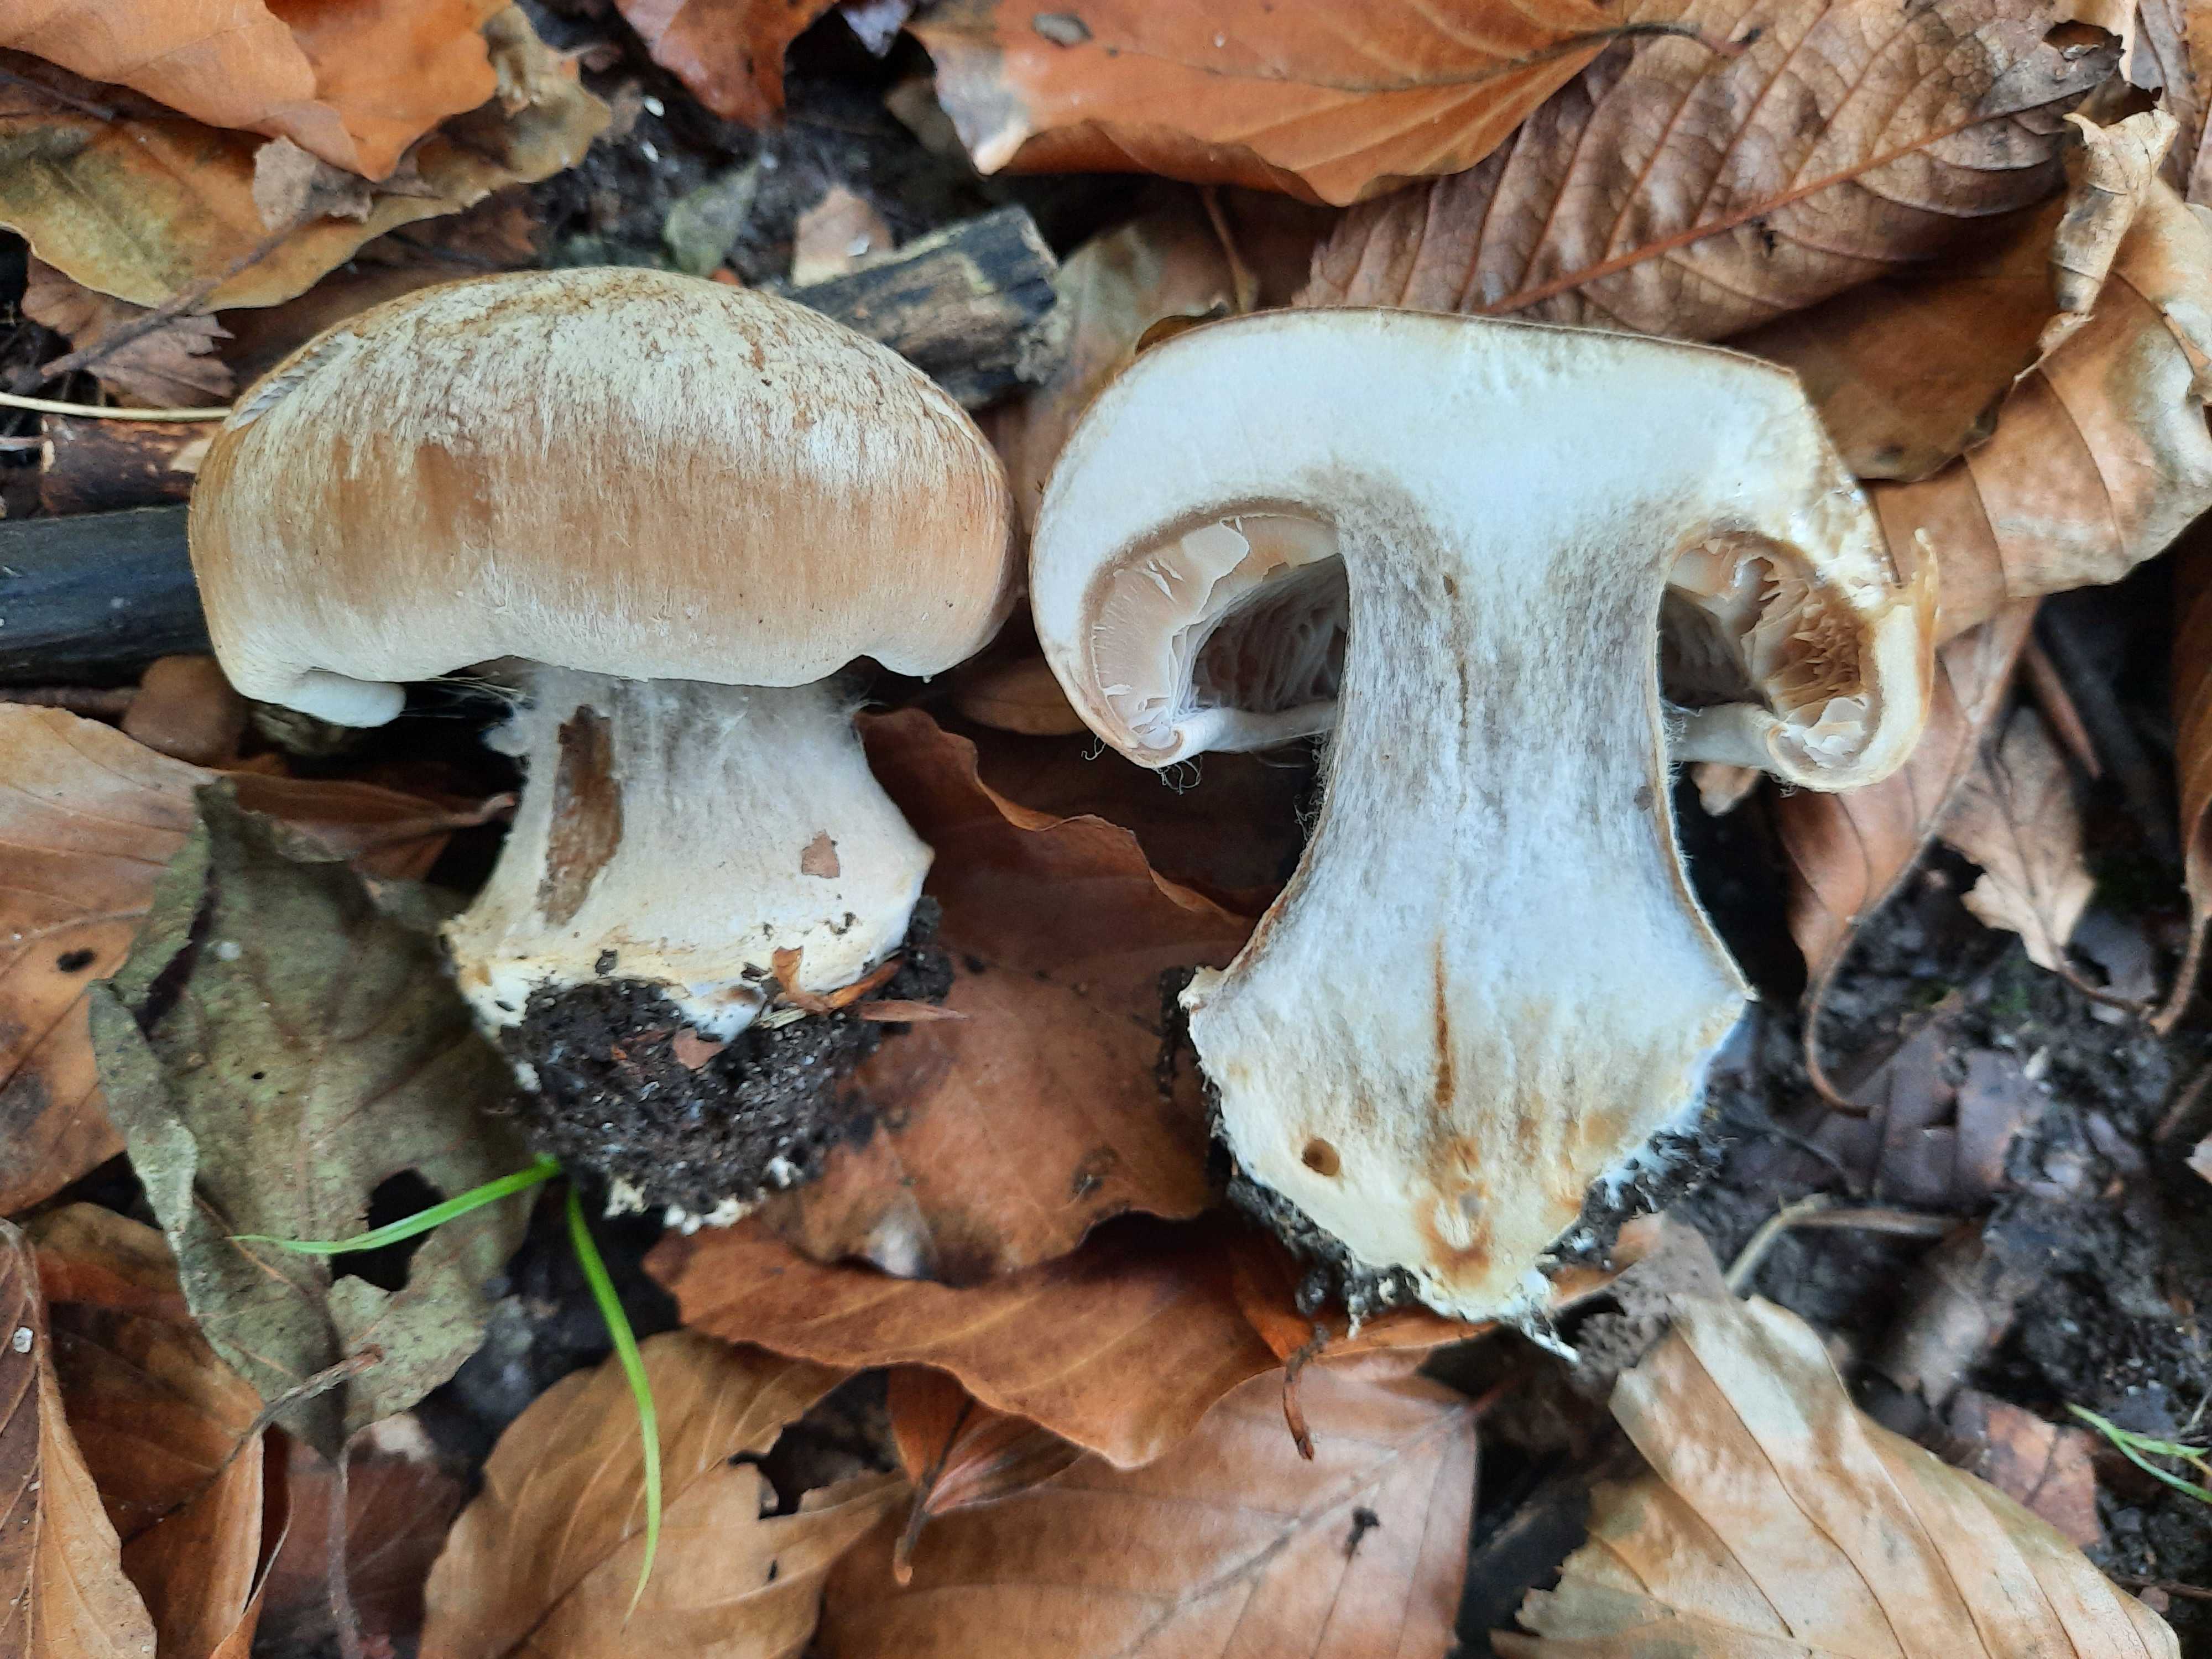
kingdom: Fungi
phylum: Basidiomycota
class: Agaricomycetes
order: Agaricales
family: Cortinariaceae
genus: Cortinarius
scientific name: Cortinarius foetens
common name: stribet slørhat
